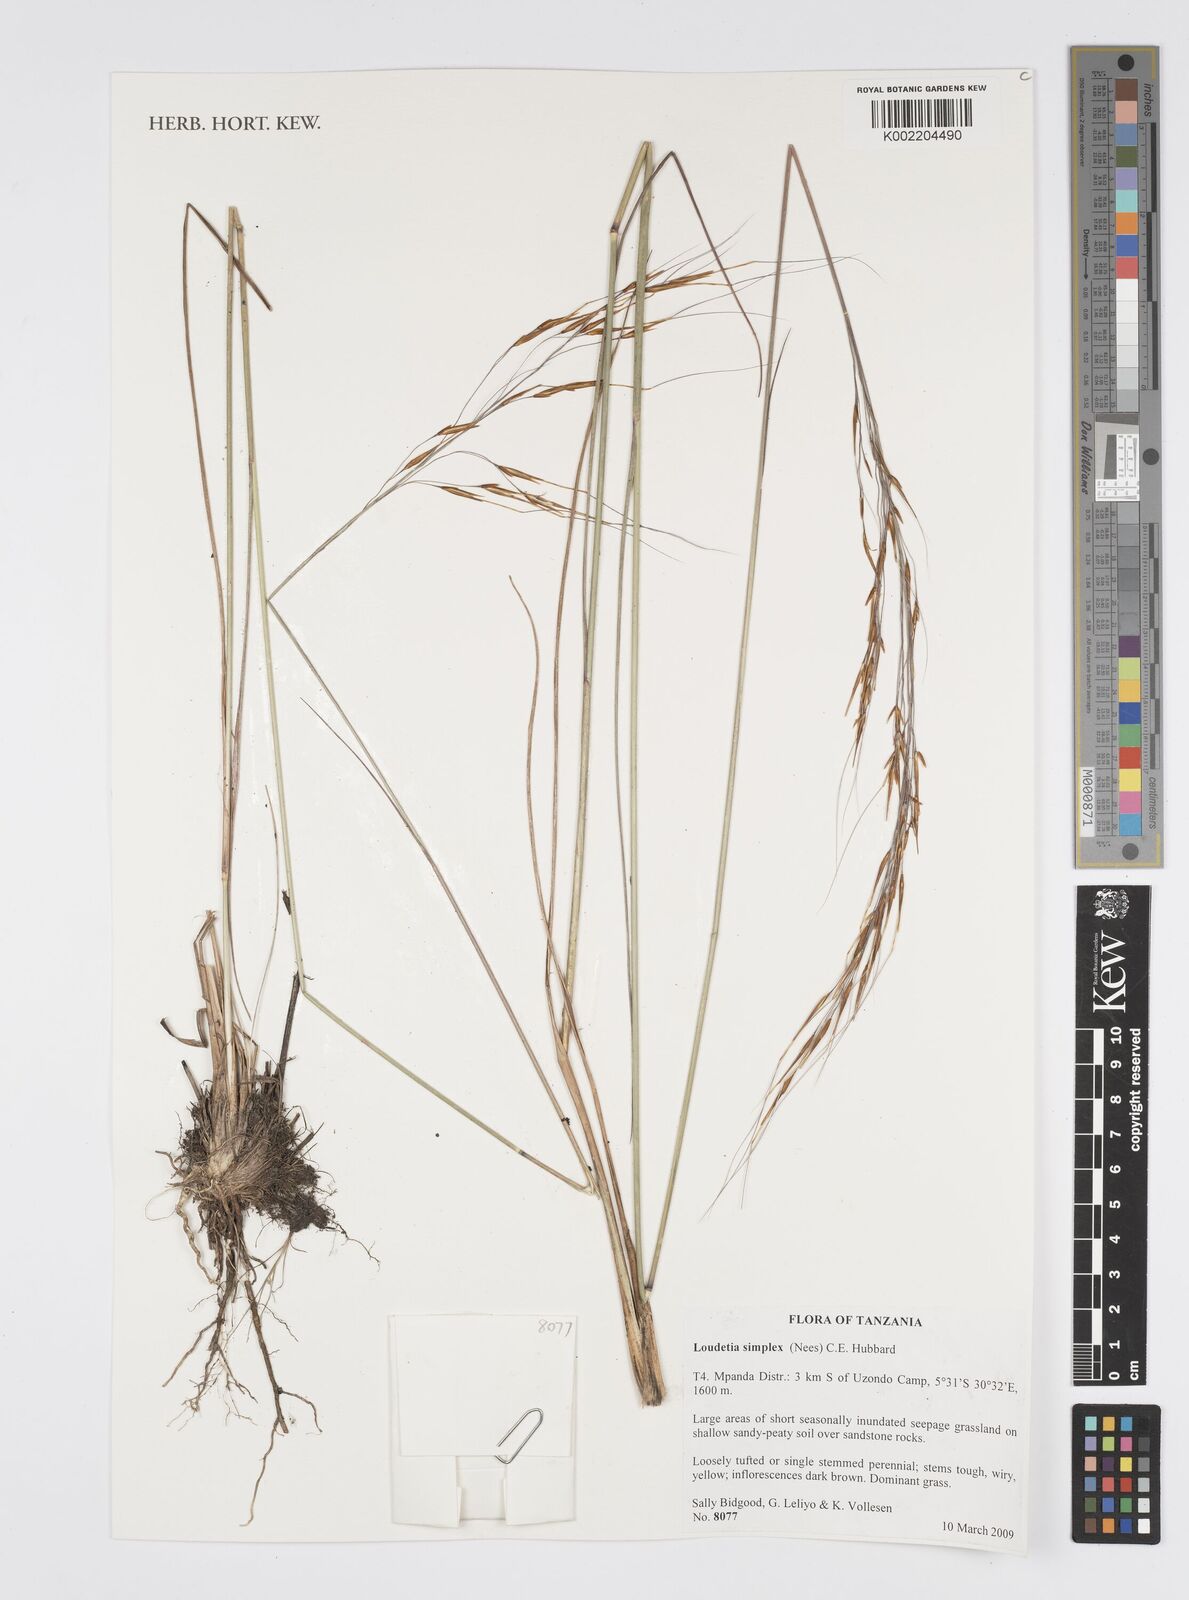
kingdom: Plantae
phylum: Tracheophyta
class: Liliopsida
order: Poales
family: Poaceae
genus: Loudetia
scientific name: Loudetia simplex
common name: Common russet grass
